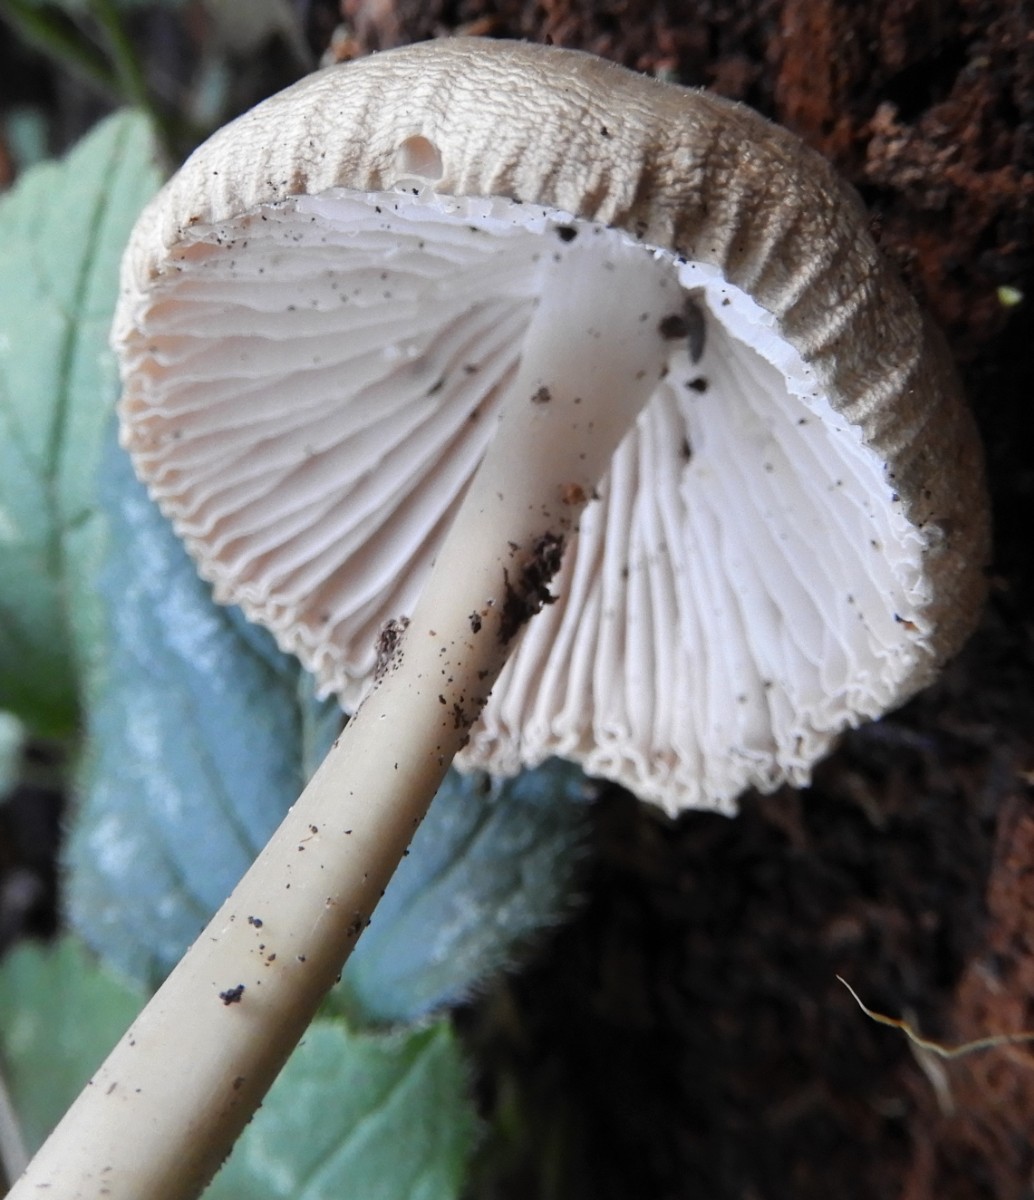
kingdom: Fungi
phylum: Basidiomycota
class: Agaricomycetes
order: Agaricales
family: Mycenaceae
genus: Mycena
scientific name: Mycena
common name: huesvamp
